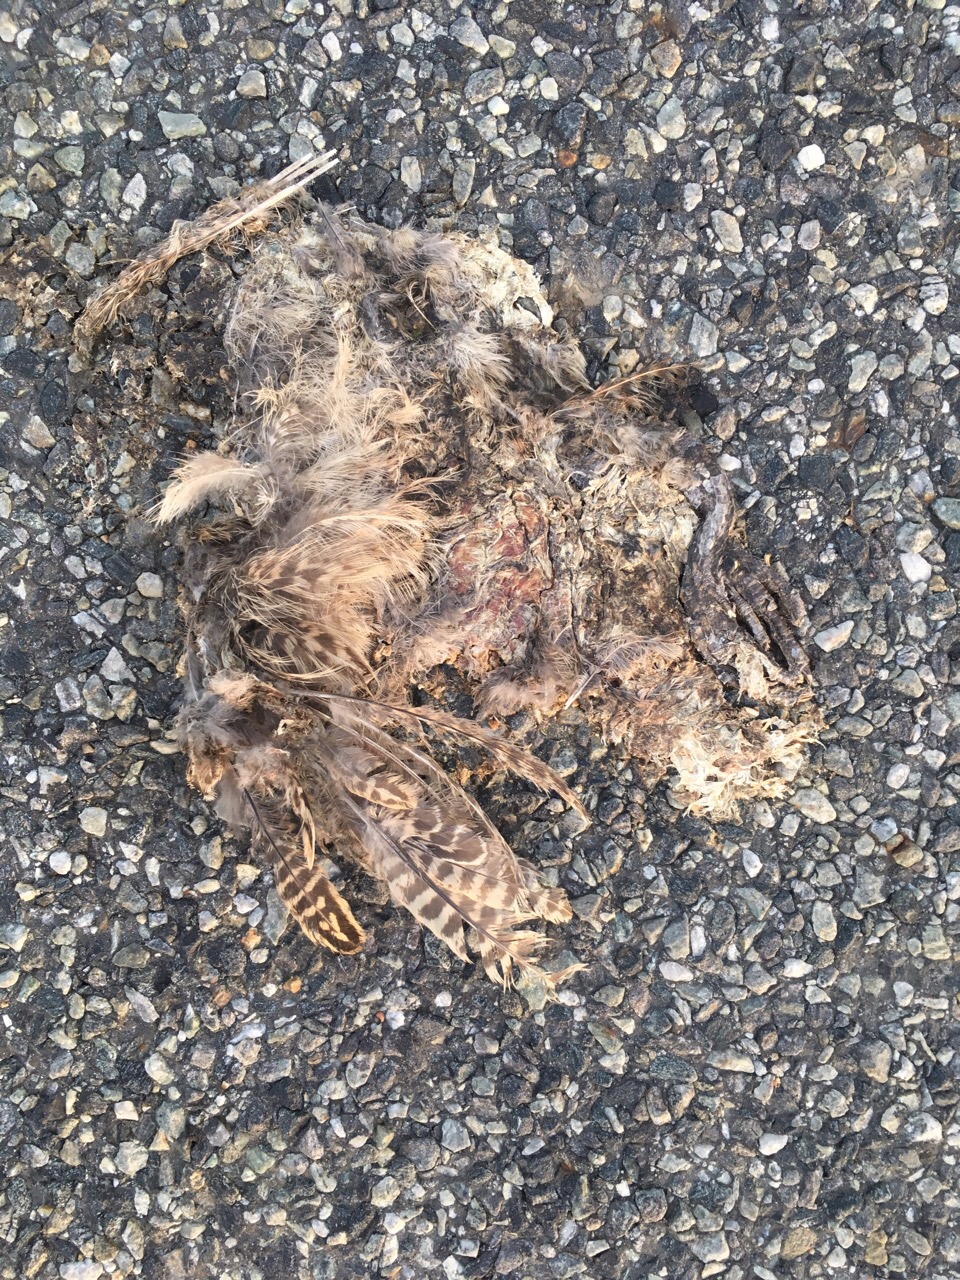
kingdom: Animalia
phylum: Chordata
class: Aves
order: Galliformes
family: Phasianidae
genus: Phasianus
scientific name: Phasianus colchicus
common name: Common pheasant
